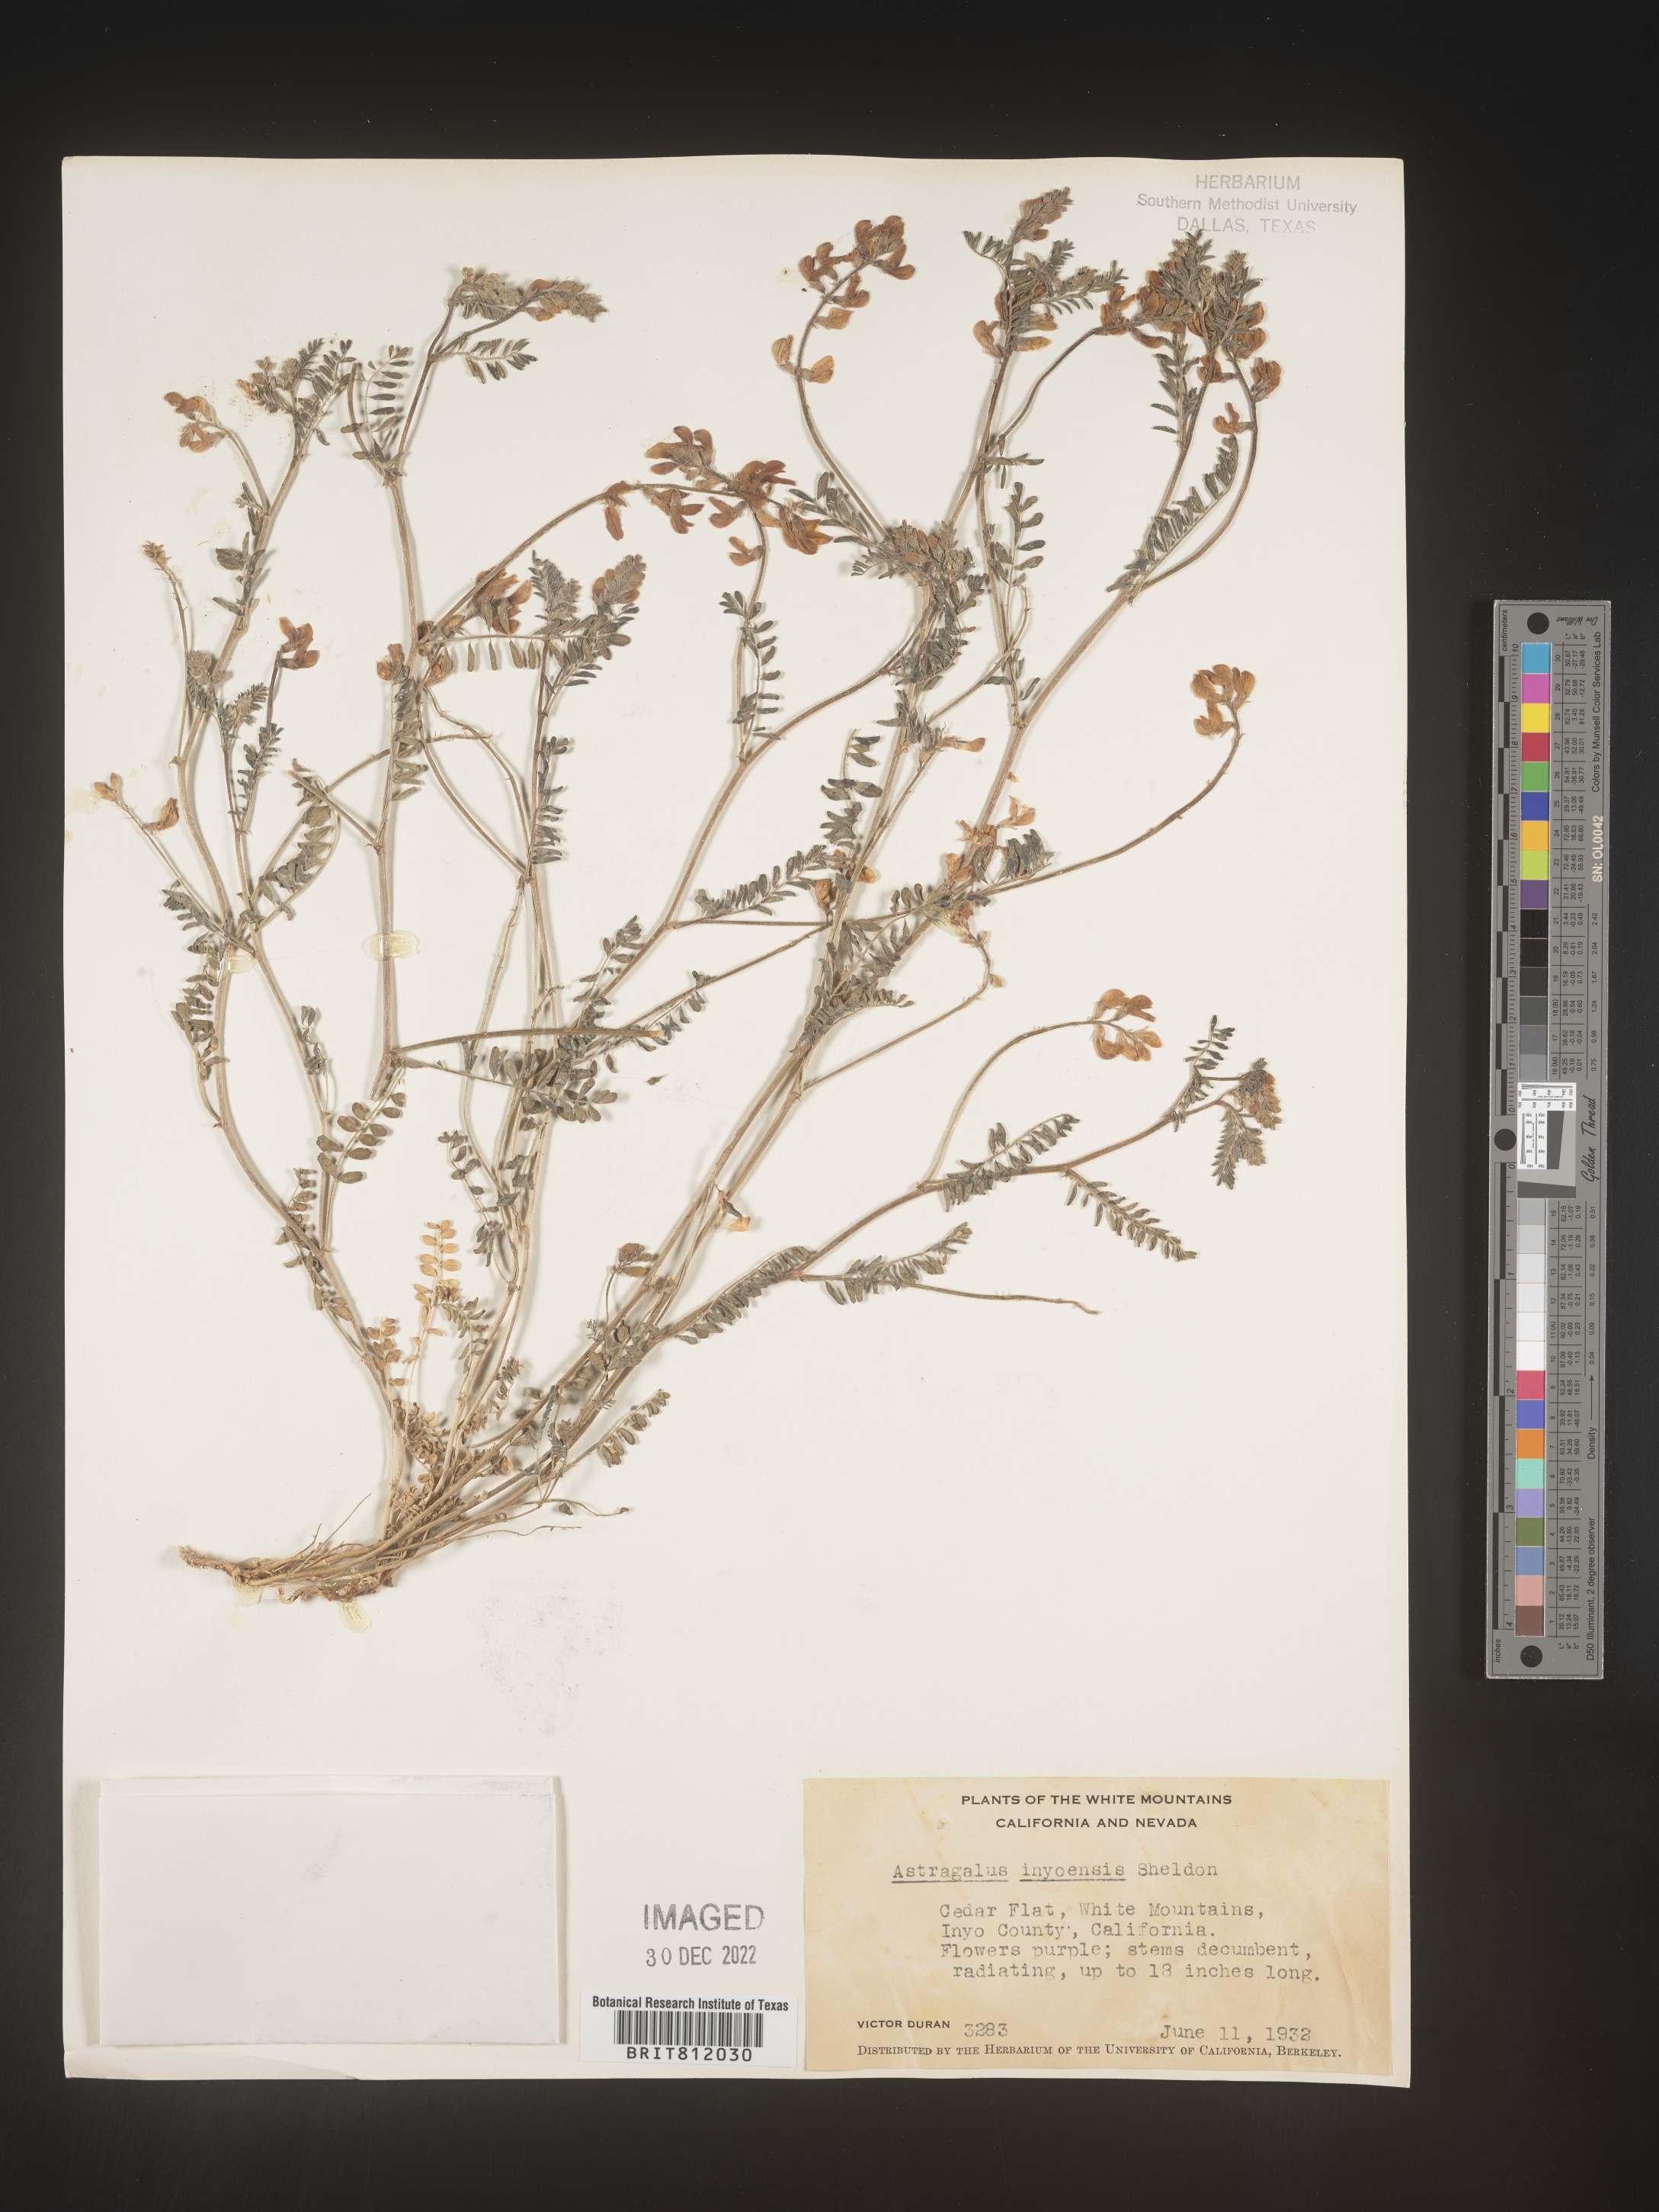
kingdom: Plantae
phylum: Tracheophyta
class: Magnoliopsida
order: Fabales
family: Fabaceae
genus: Astragalus
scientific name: Astragalus inyoensis
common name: Inyo locoweed
